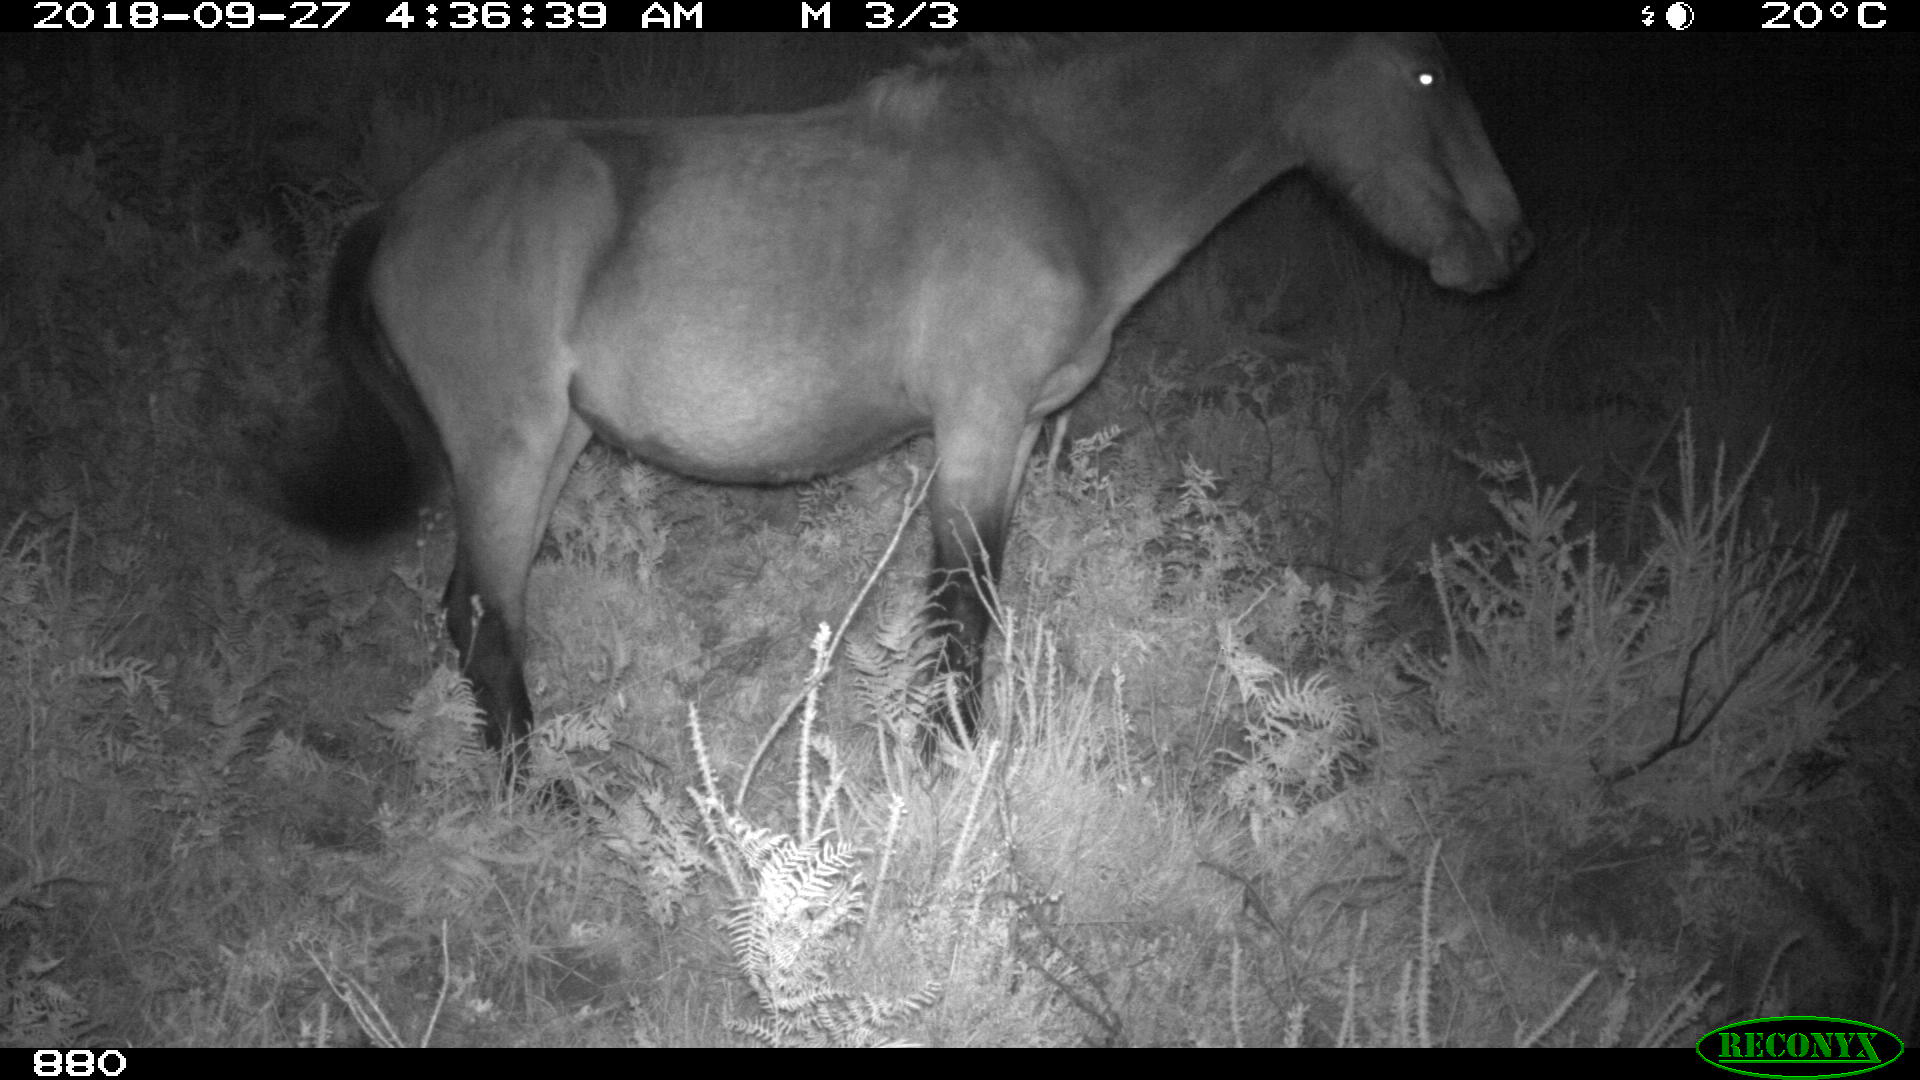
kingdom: Animalia
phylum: Chordata
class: Mammalia
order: Perissodactyla
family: Equidae
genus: Equus
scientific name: Equus caballus
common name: Horse
